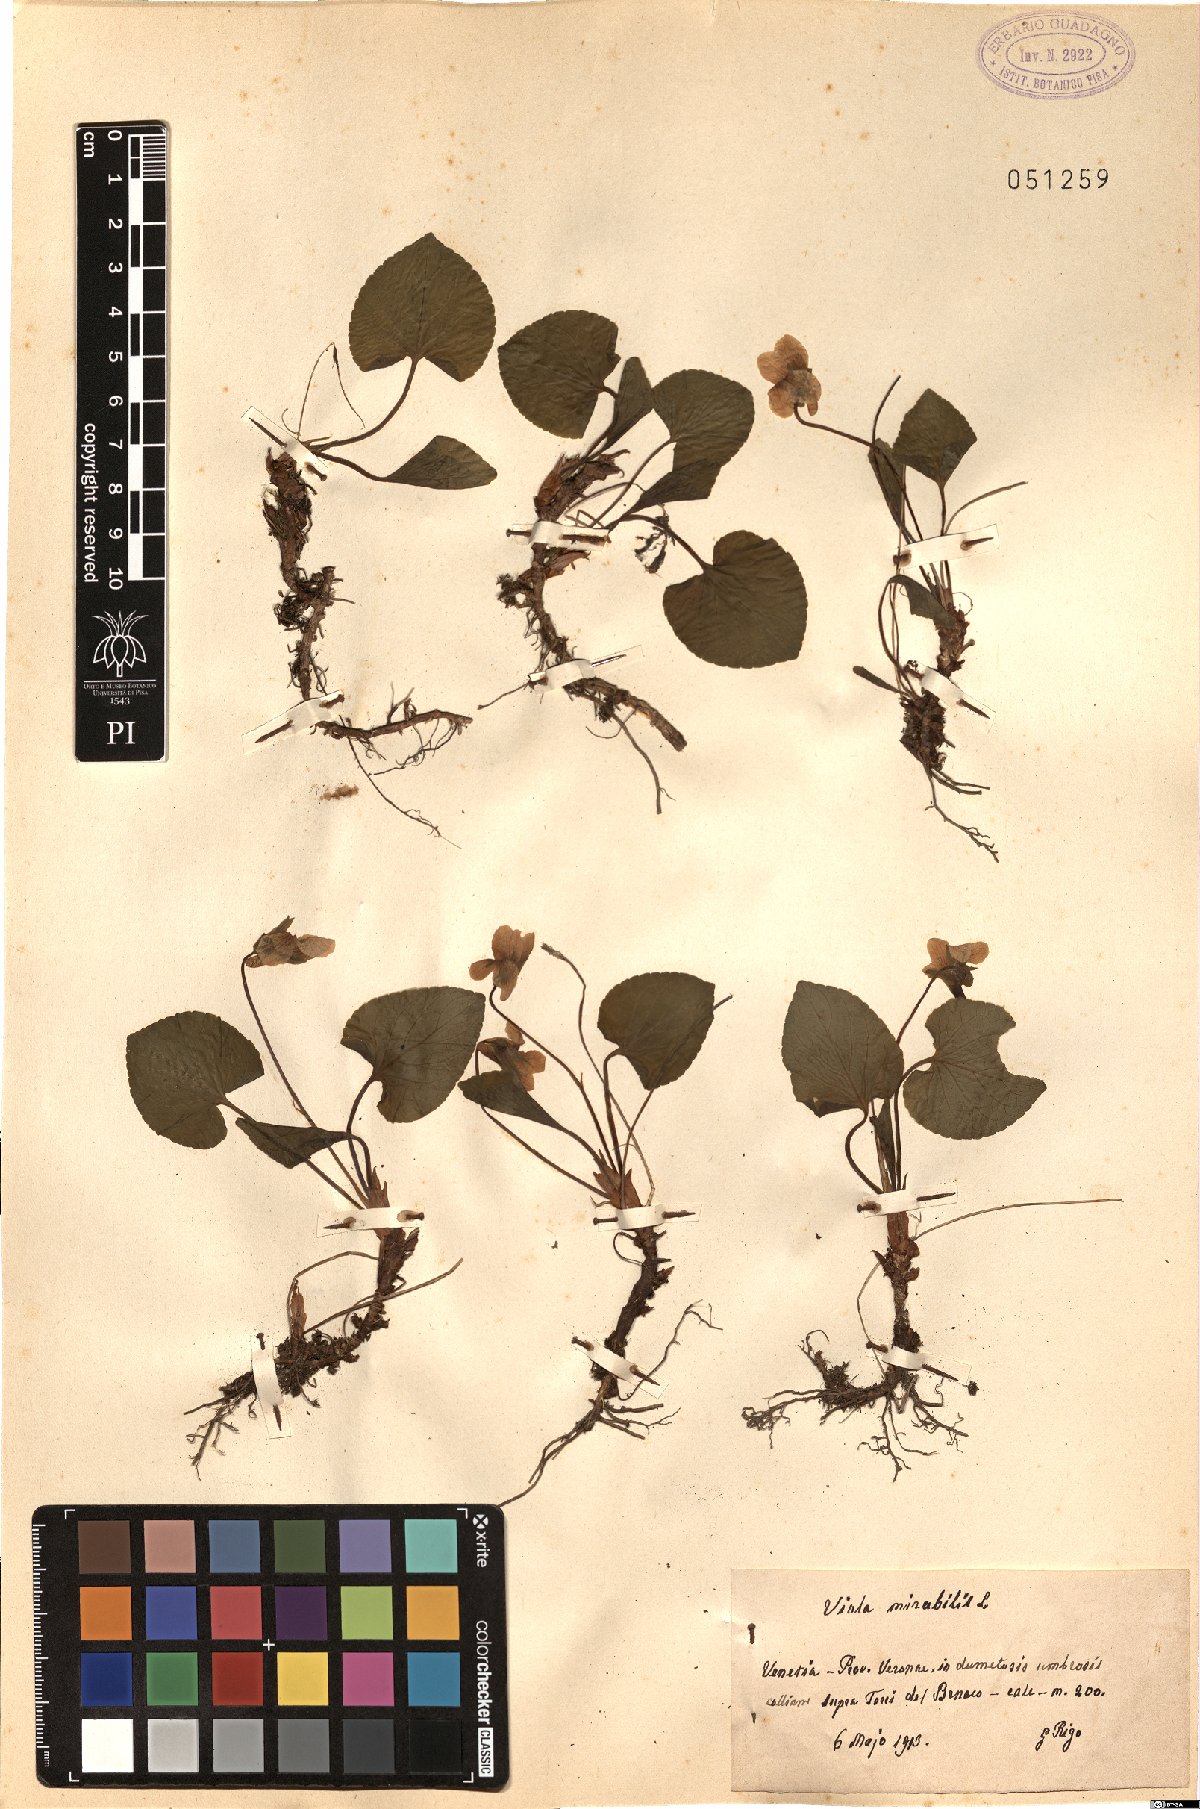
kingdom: Plantae
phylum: Tracheophyta
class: Magnoliopsida
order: Malpighiales
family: Violaceae
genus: Viola
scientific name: Viola mirabilis
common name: Wonder violet
